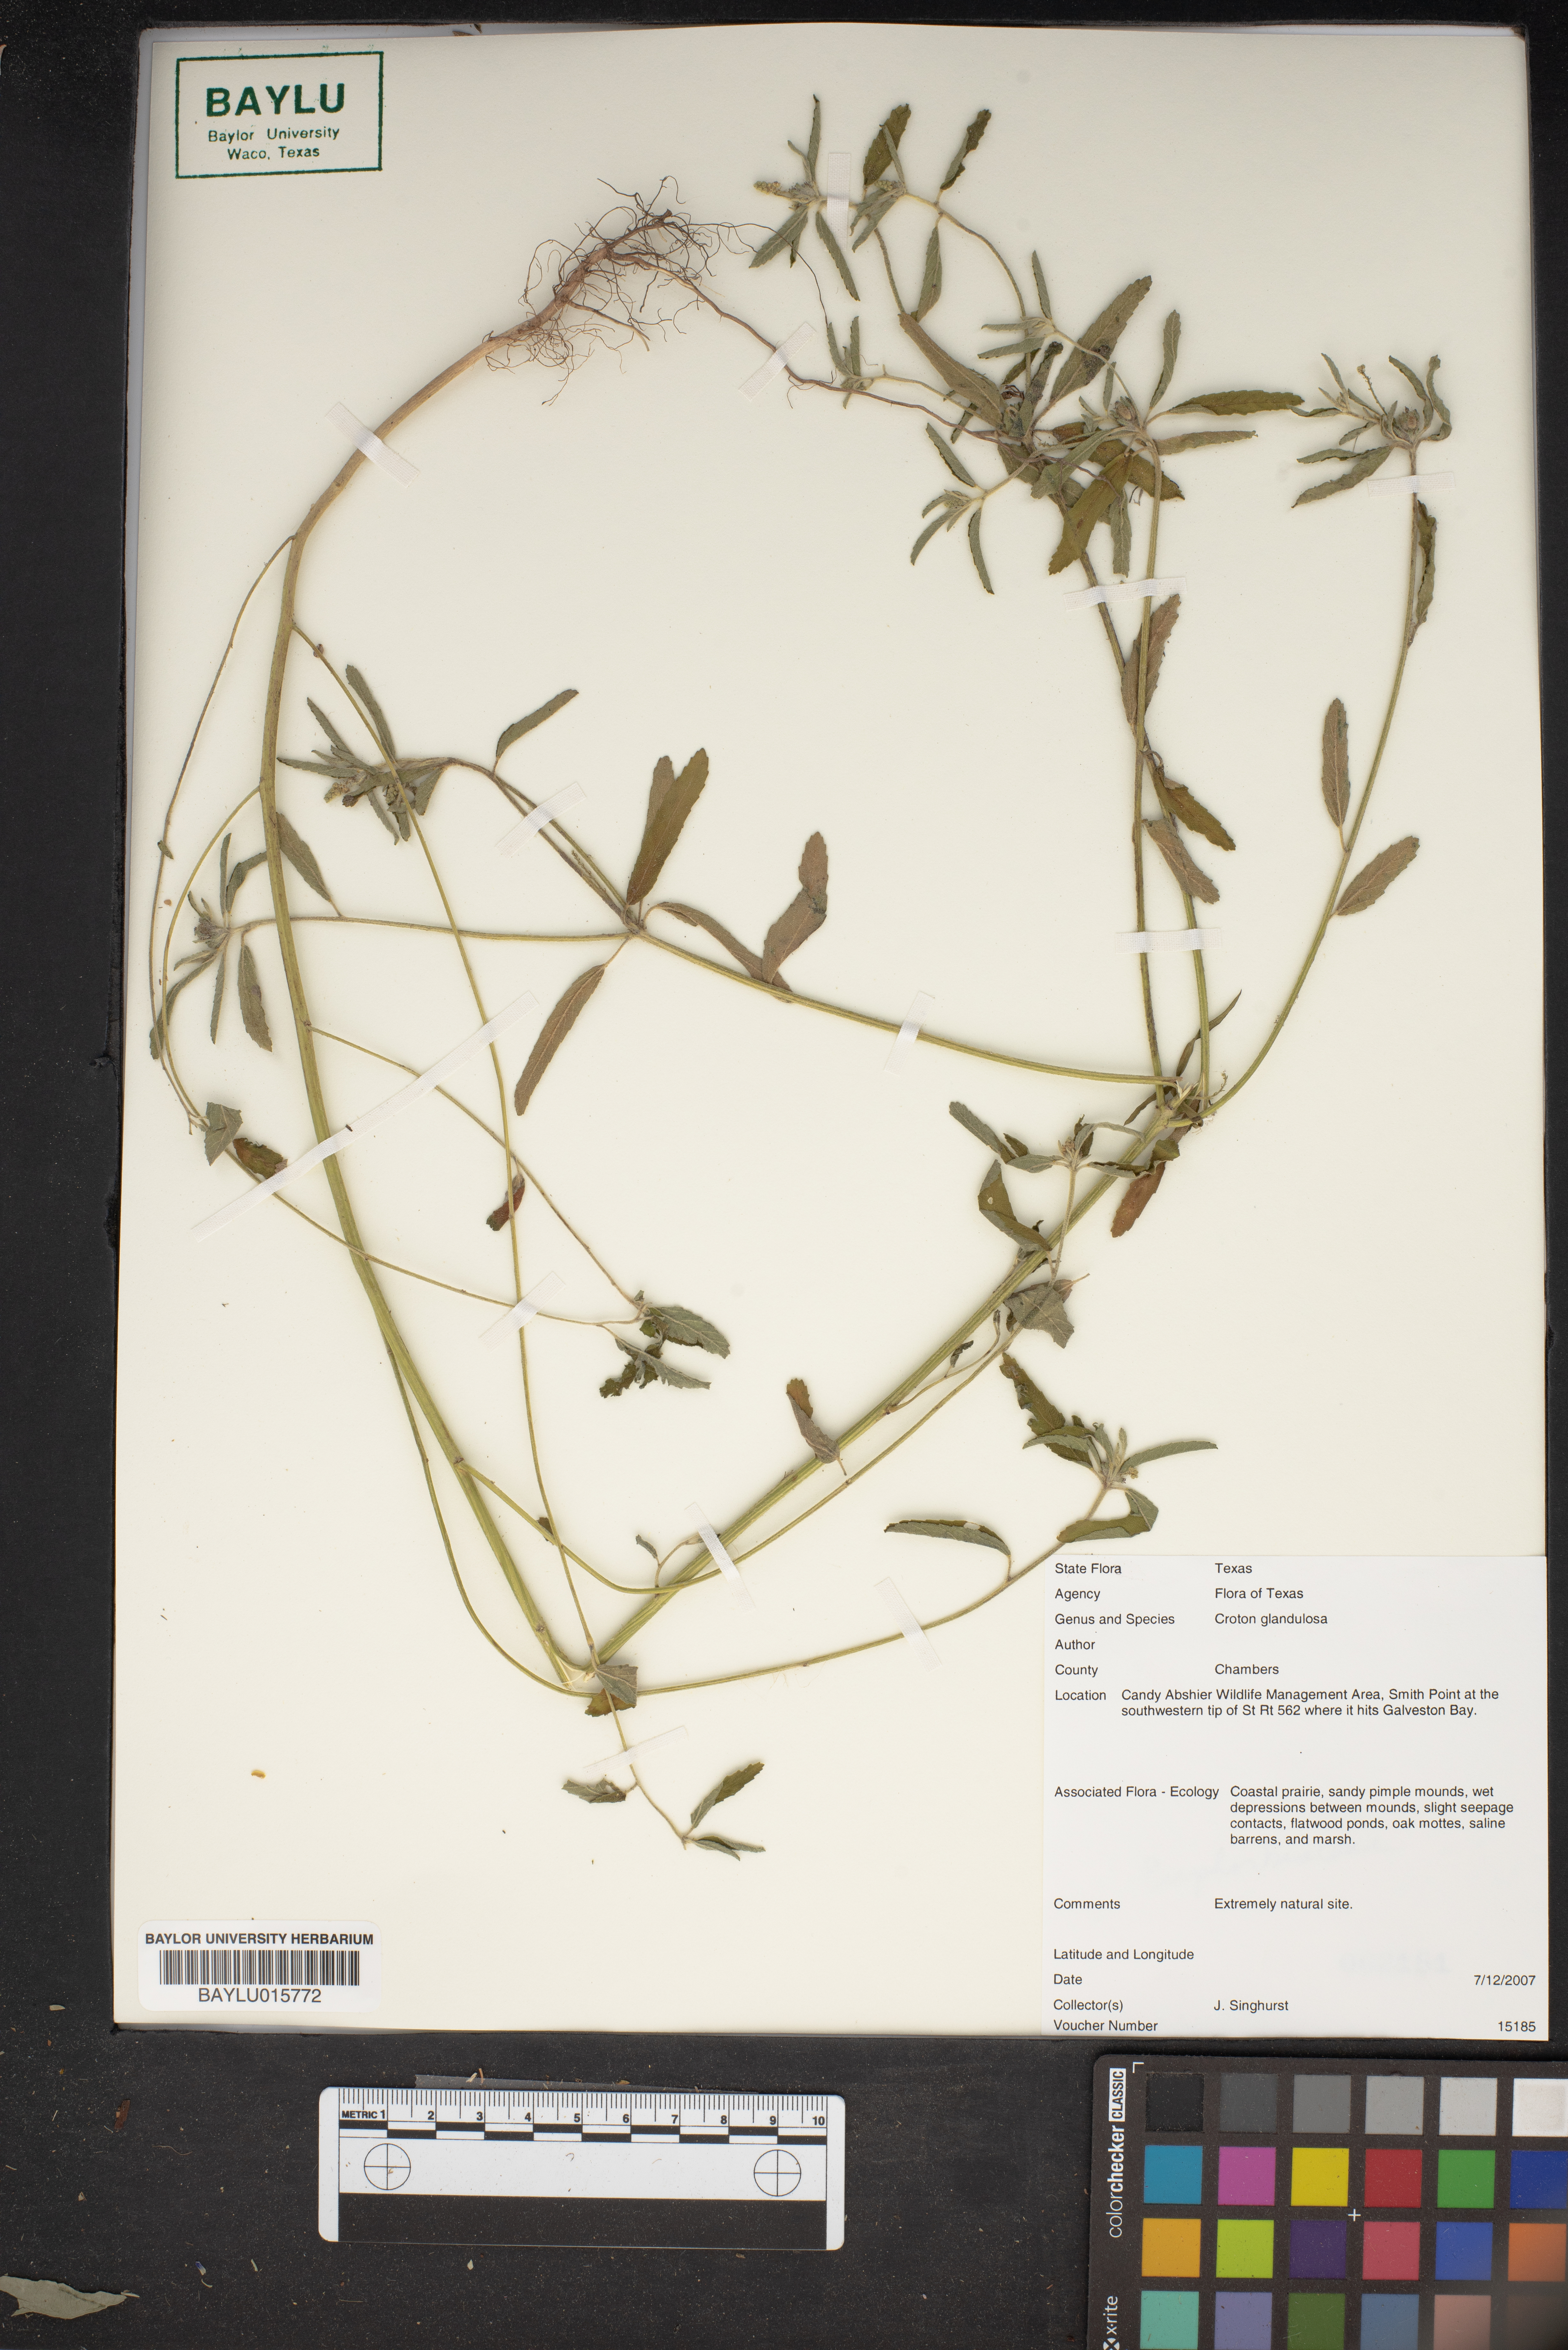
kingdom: Plantae
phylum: Tracheophyta
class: Magnoliopsida
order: Malpighiales
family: Euphorbiaceae
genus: Croton
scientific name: Croton glandulosus
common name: Tropic croton
